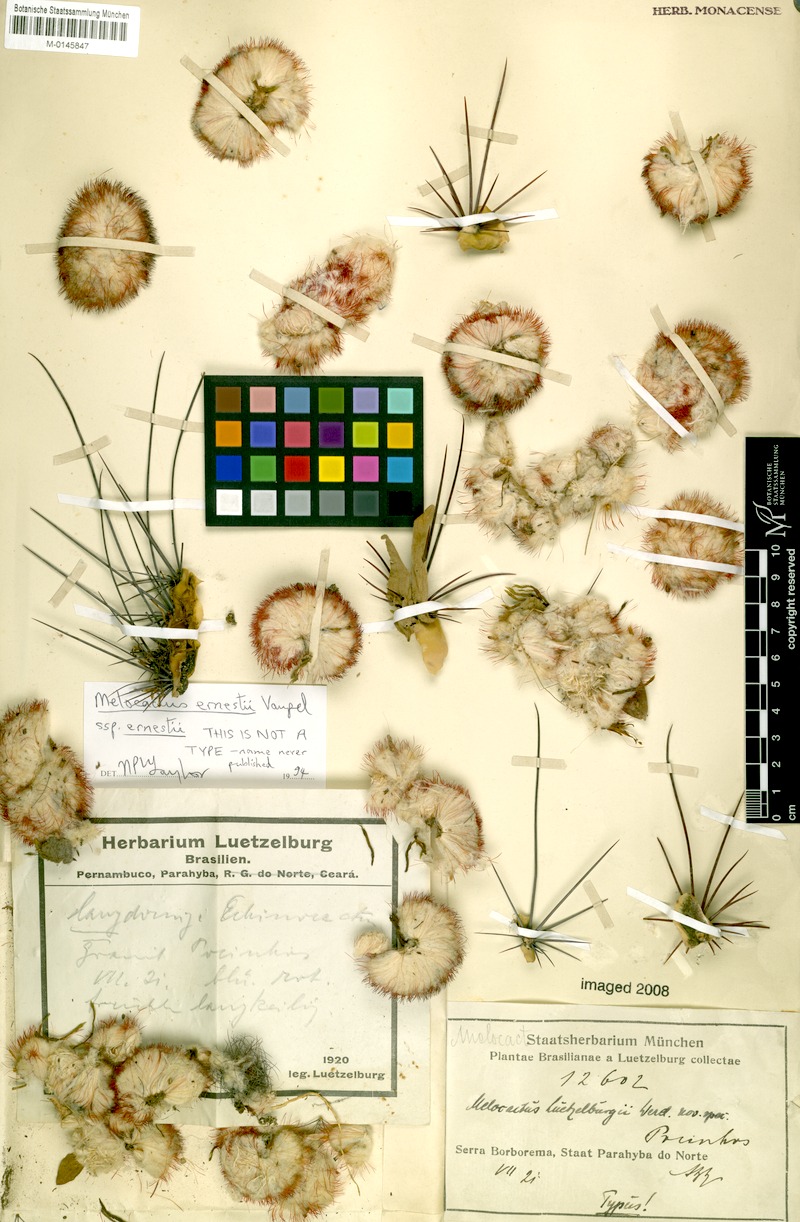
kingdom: Plantae
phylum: Tracheophyta
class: Magnoliopsida
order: Caryophyllales
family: Cactaceae
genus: Melocactus
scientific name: Melocactus ernestii
